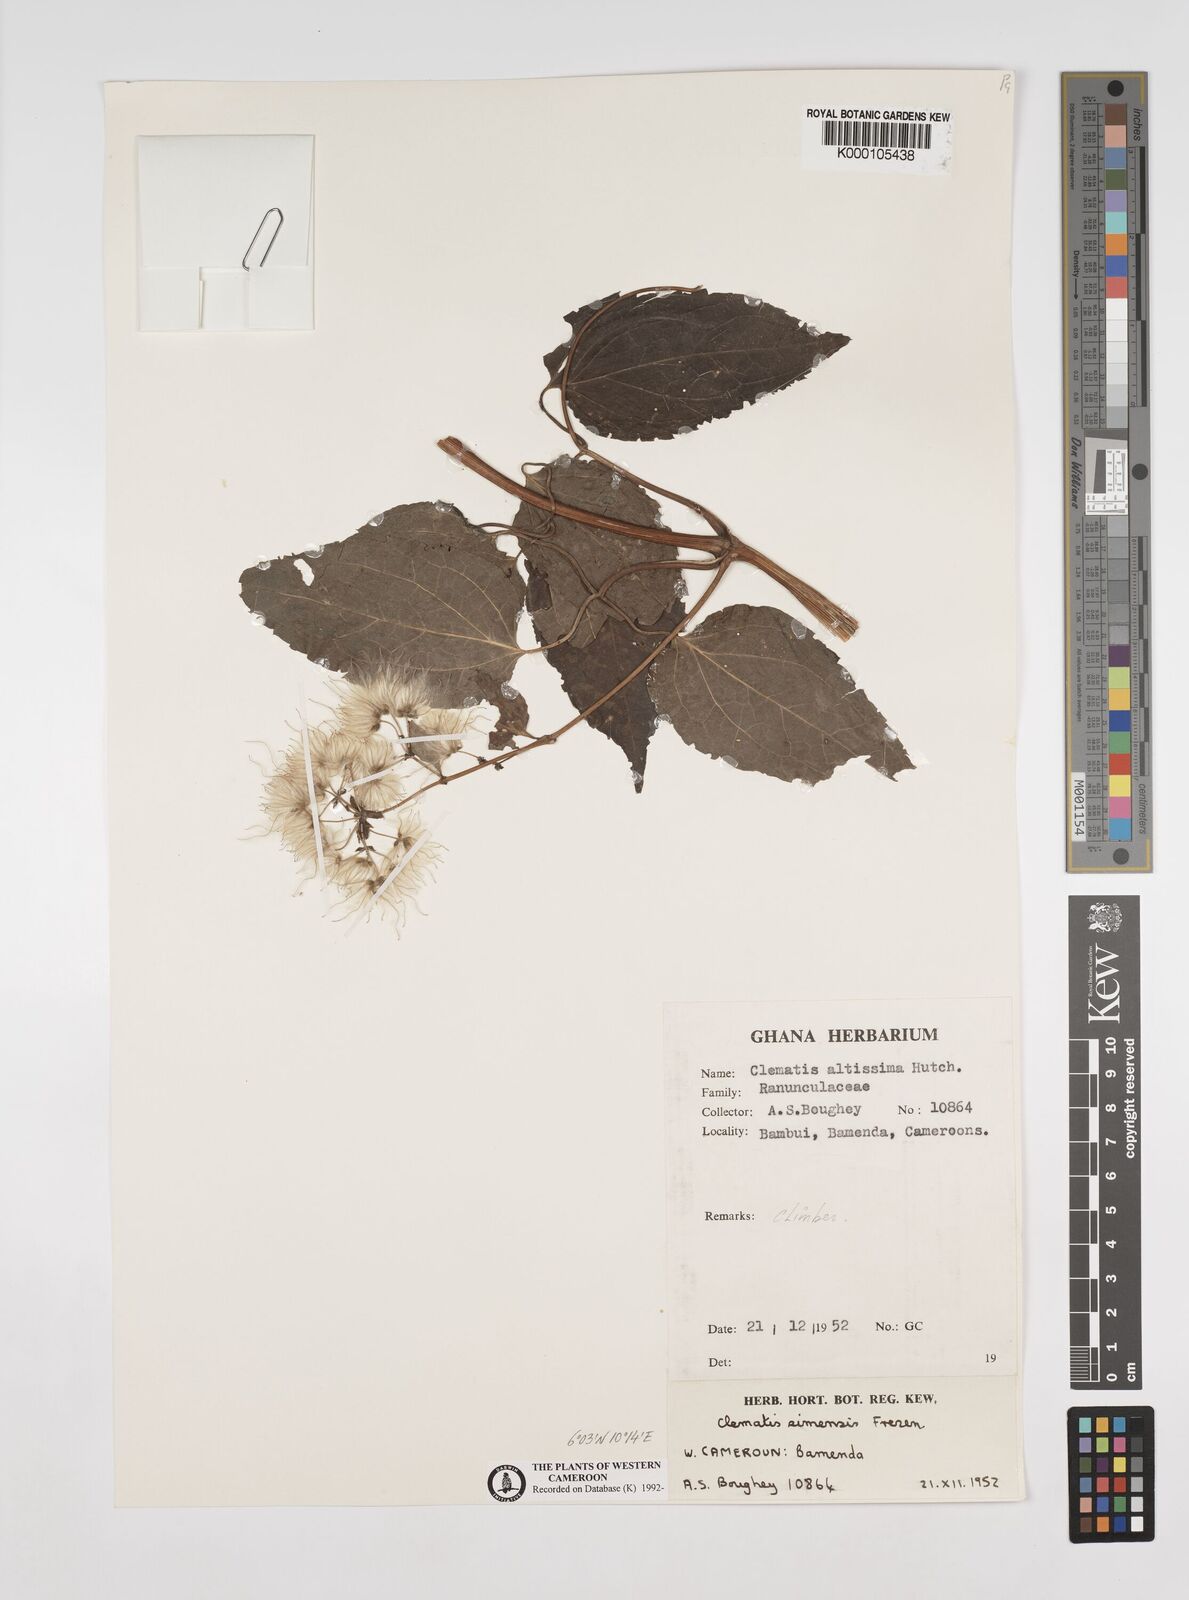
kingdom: Plantae
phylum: Tracheophyta
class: Magnoliopsida
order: Ranunculales
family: Ranunculaceae
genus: Clematis
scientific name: Clematis simensis
